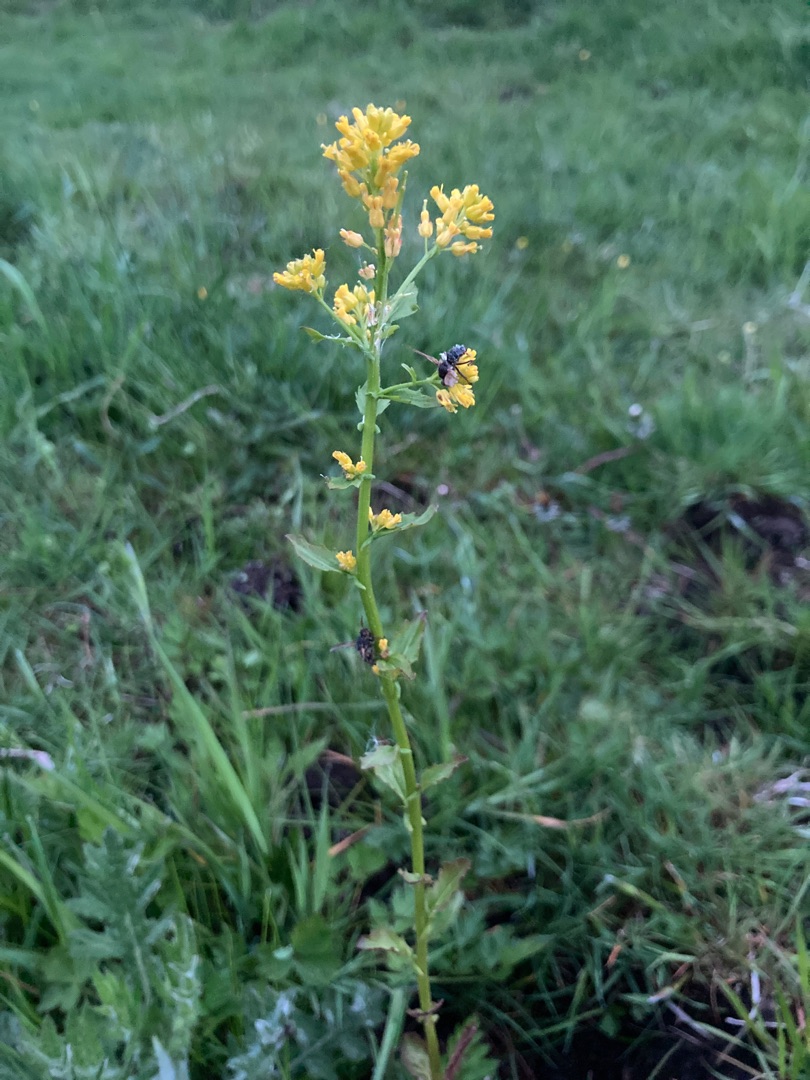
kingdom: Plantae
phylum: Tracheophyta
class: Magnoliopsida
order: Brassicales
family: Brassicaceae
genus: Barbarea
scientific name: Barbarea vulgaris
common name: Almindelig vinterkarse (varietet)
